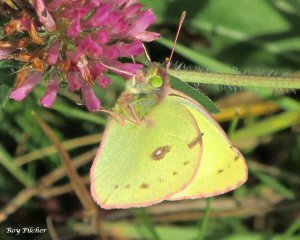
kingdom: Animalia
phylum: Arthropoda
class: Insecta
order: Lepidoptera
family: Pieridae
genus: Colias
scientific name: Colias philodice
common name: Clouded Sulphur
